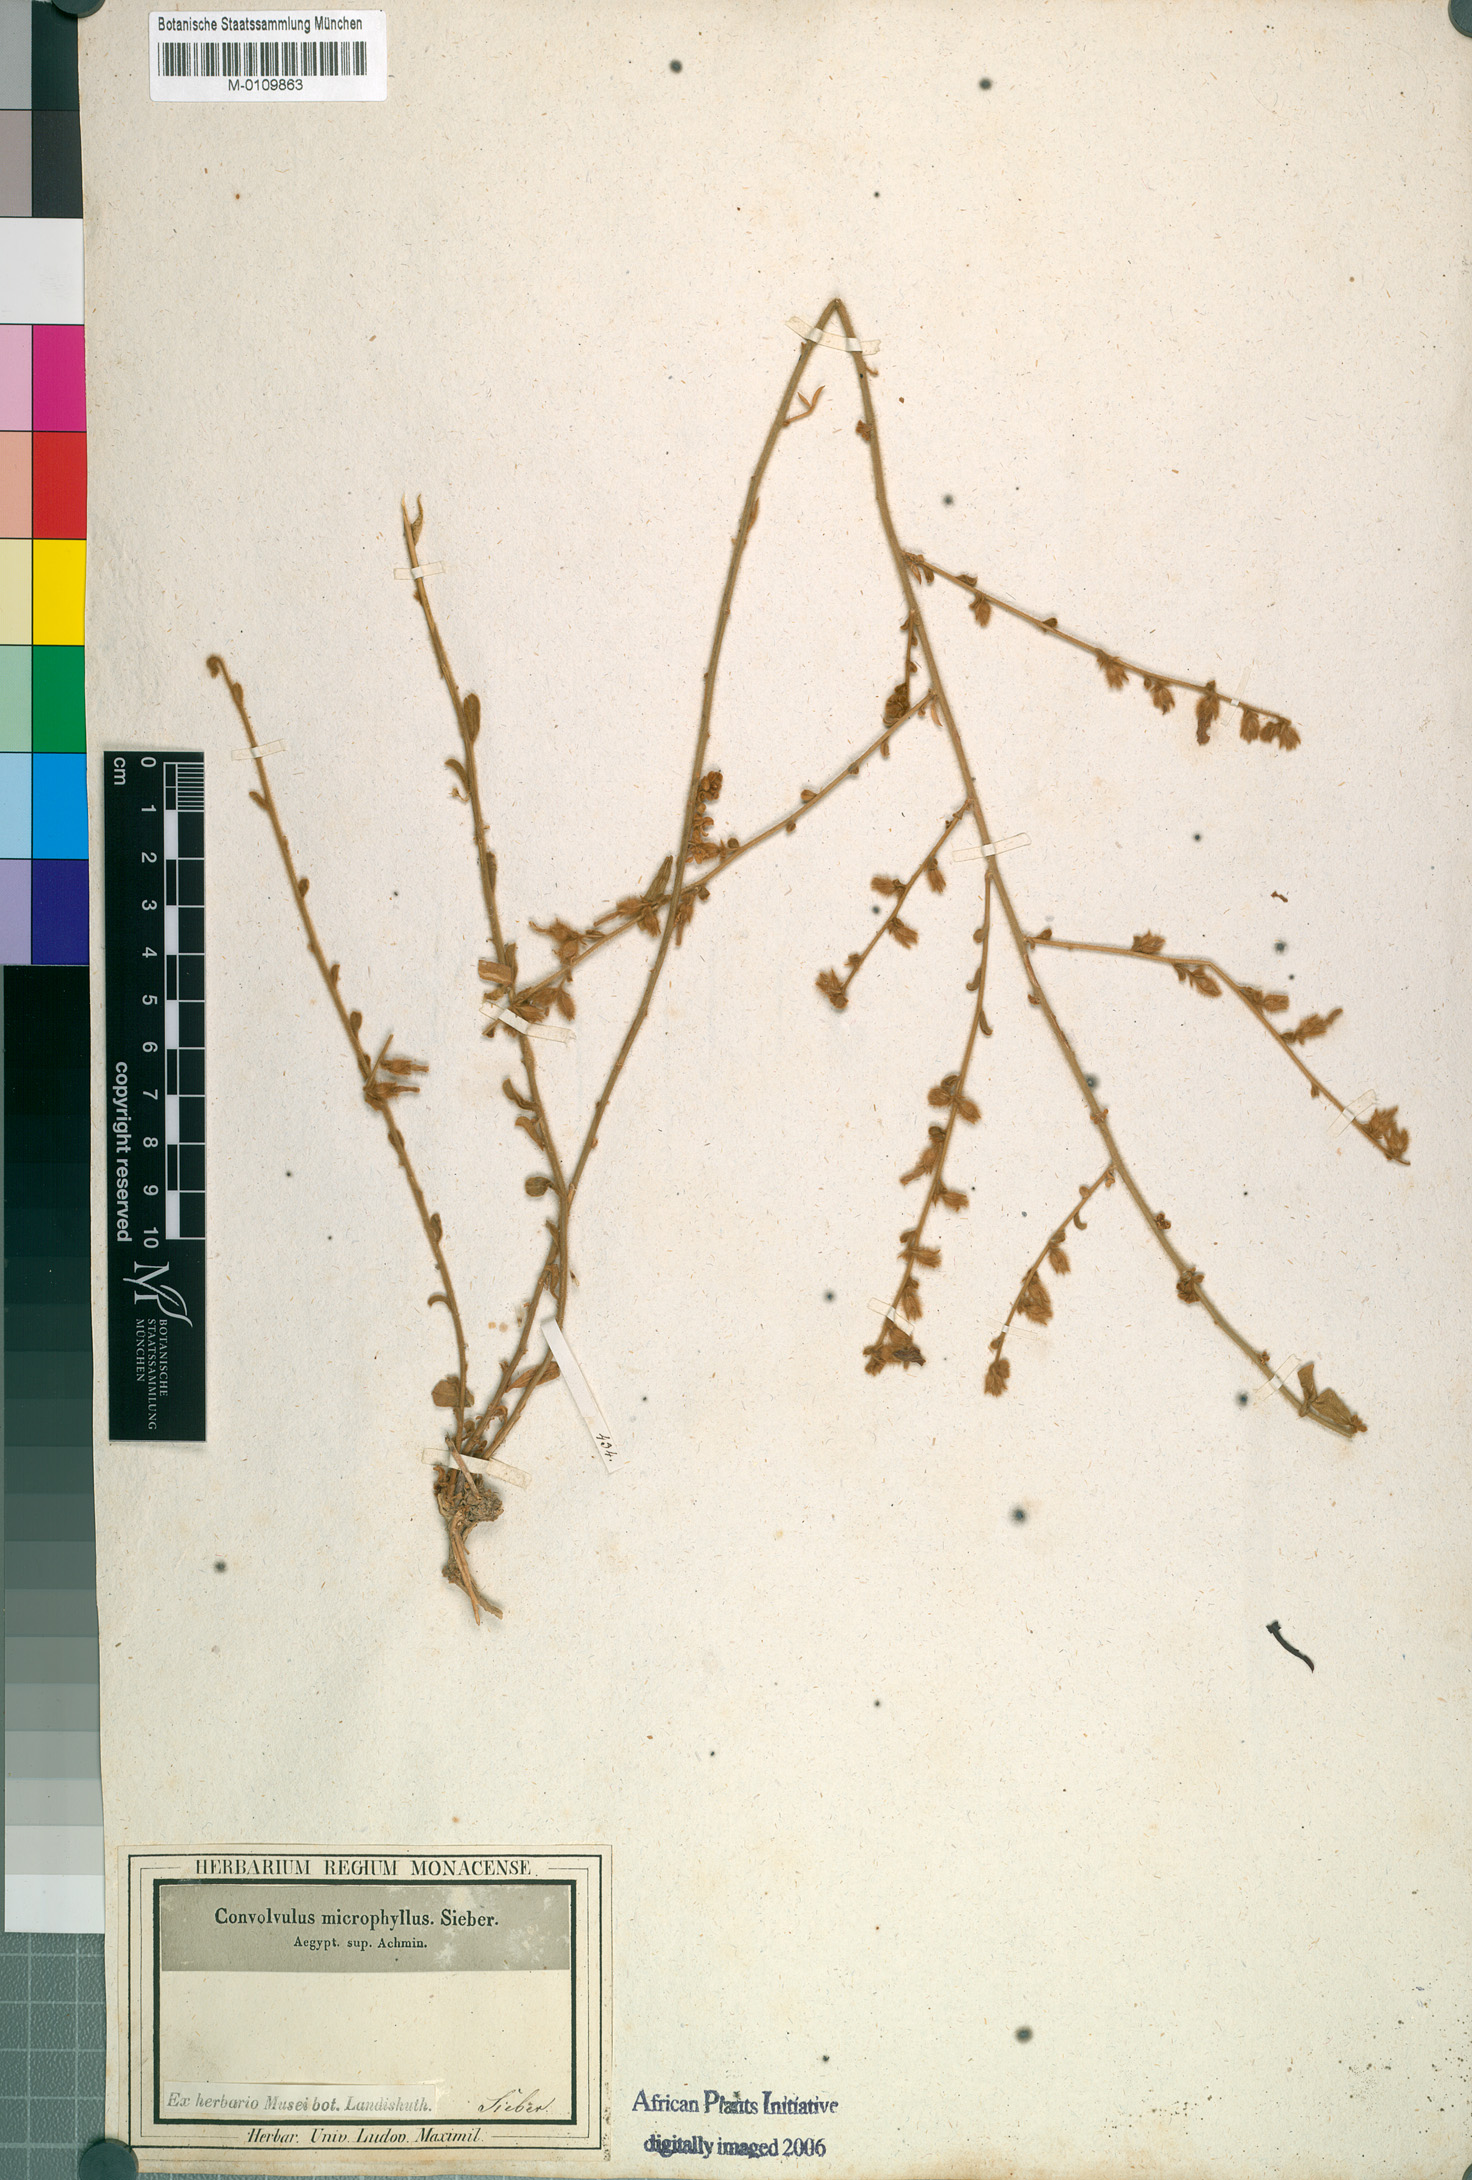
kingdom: Plantae
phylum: Tracheophyta
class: Magnoliopsida
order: Solanales
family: Convolvulaceae
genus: Convolvulus
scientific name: Convolvulus prostratus
